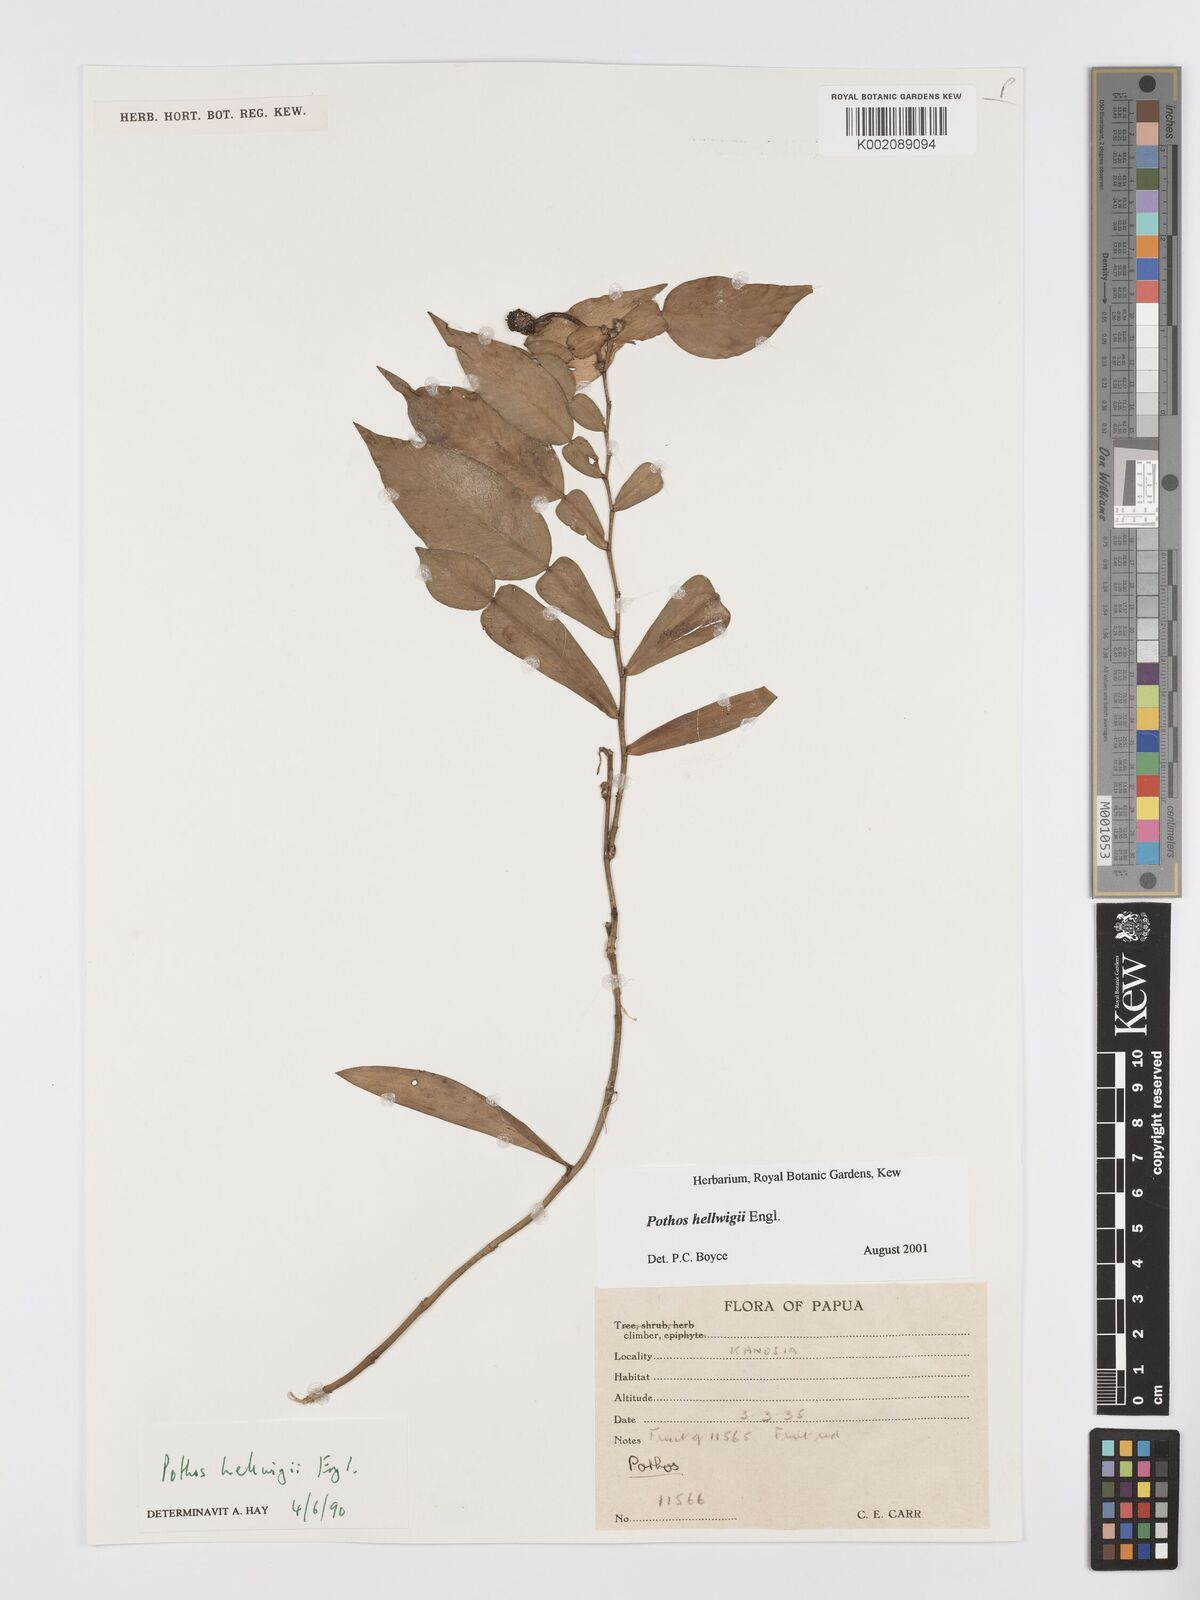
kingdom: Plantae
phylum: Tracheophyta
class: Liliopsida
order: Alismatales
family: Araceae
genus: Pothos
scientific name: Pothos hellwigii
